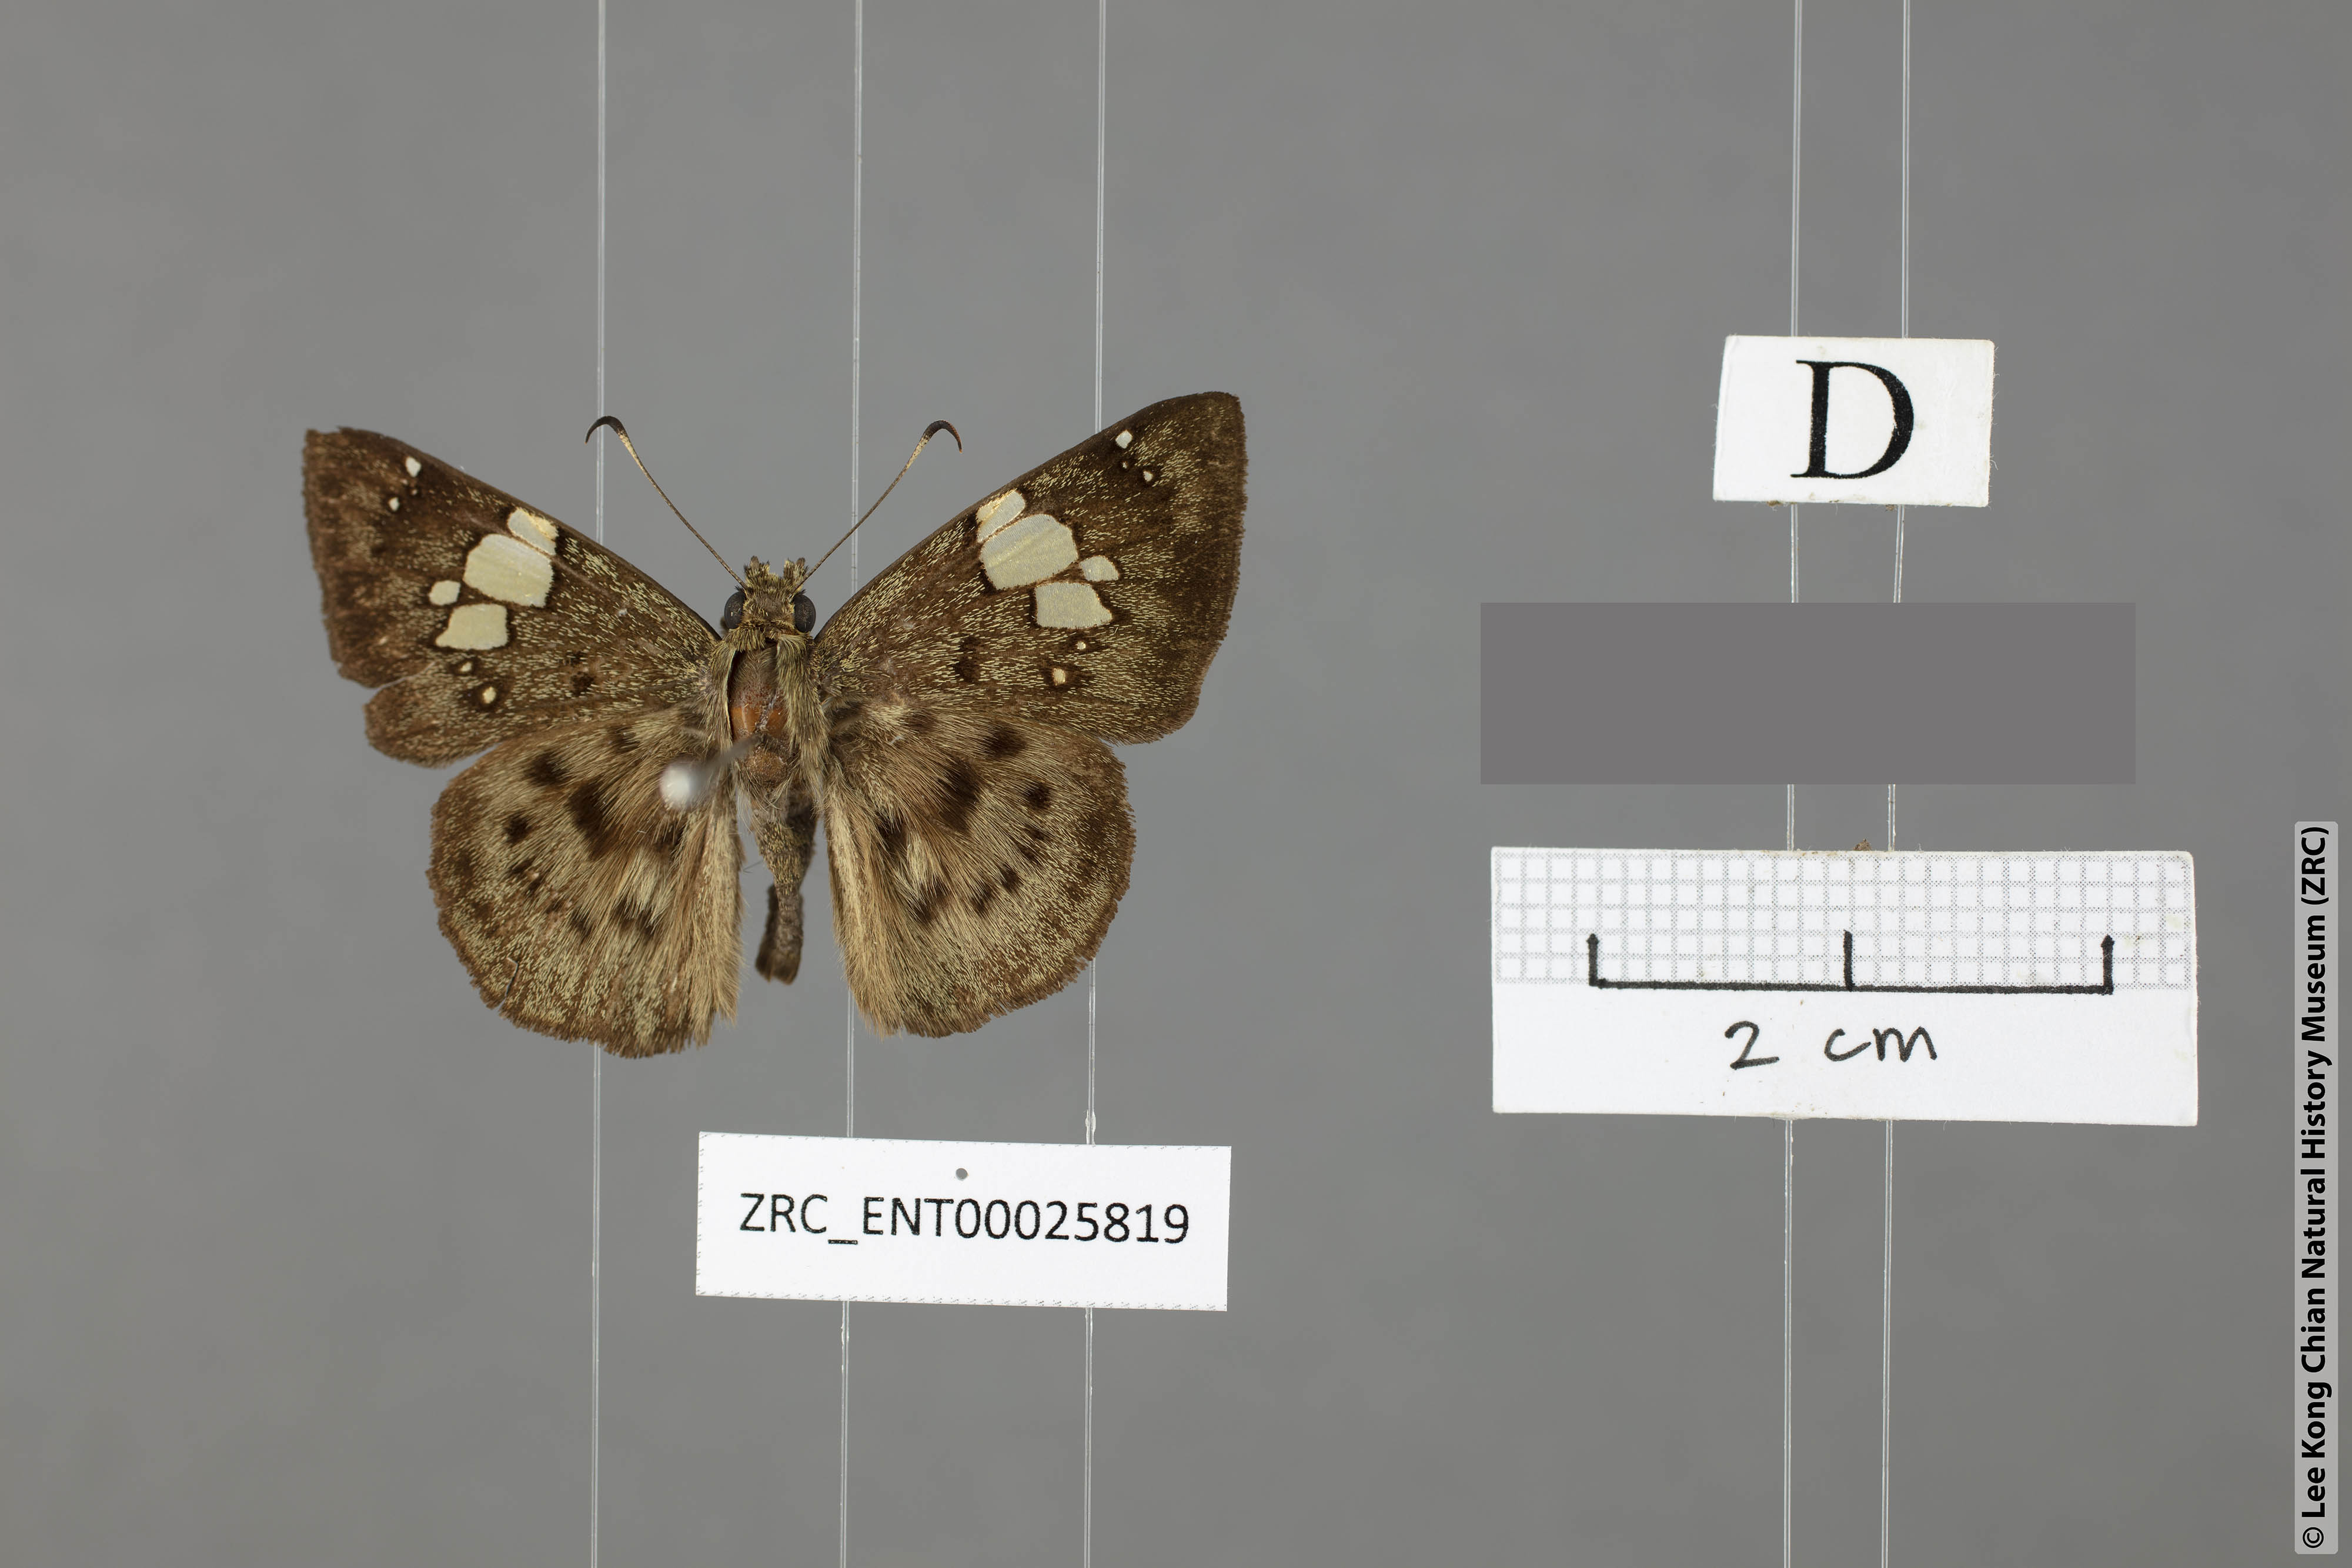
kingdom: Animalia
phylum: Arthropoda
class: Insecta
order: Lepidoptera
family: Hesperiidae
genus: Coladenia
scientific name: Coladenia laxmi
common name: Gray pied flat
